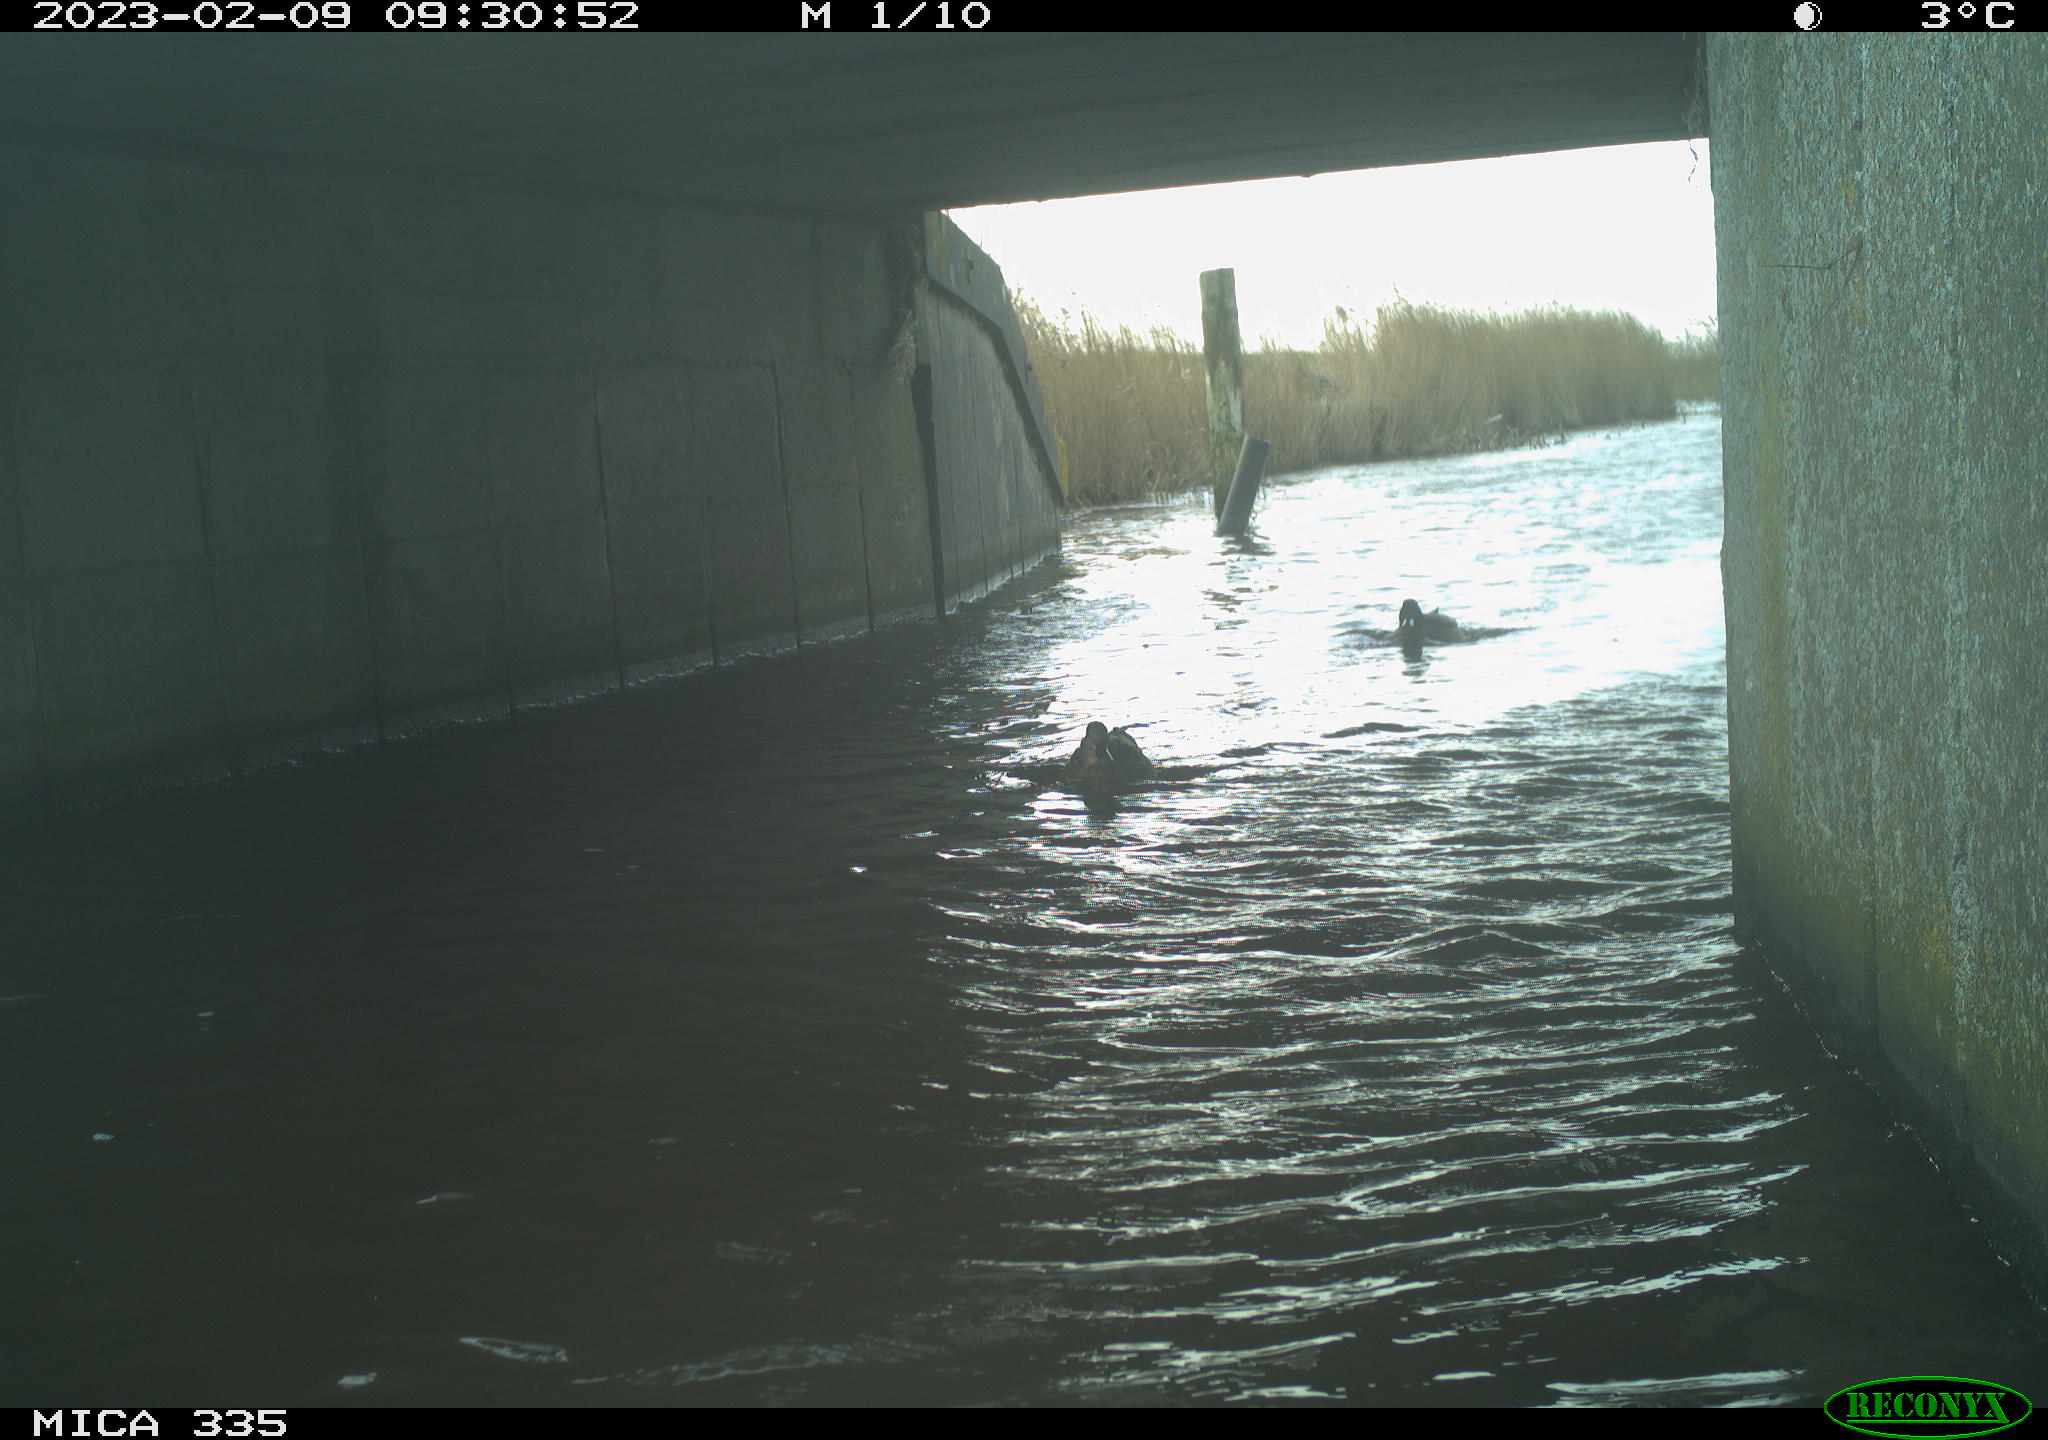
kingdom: Animalia
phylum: Chordata
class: Aves
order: Anseriformes
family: Anatidae
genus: Anas
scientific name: Anas
